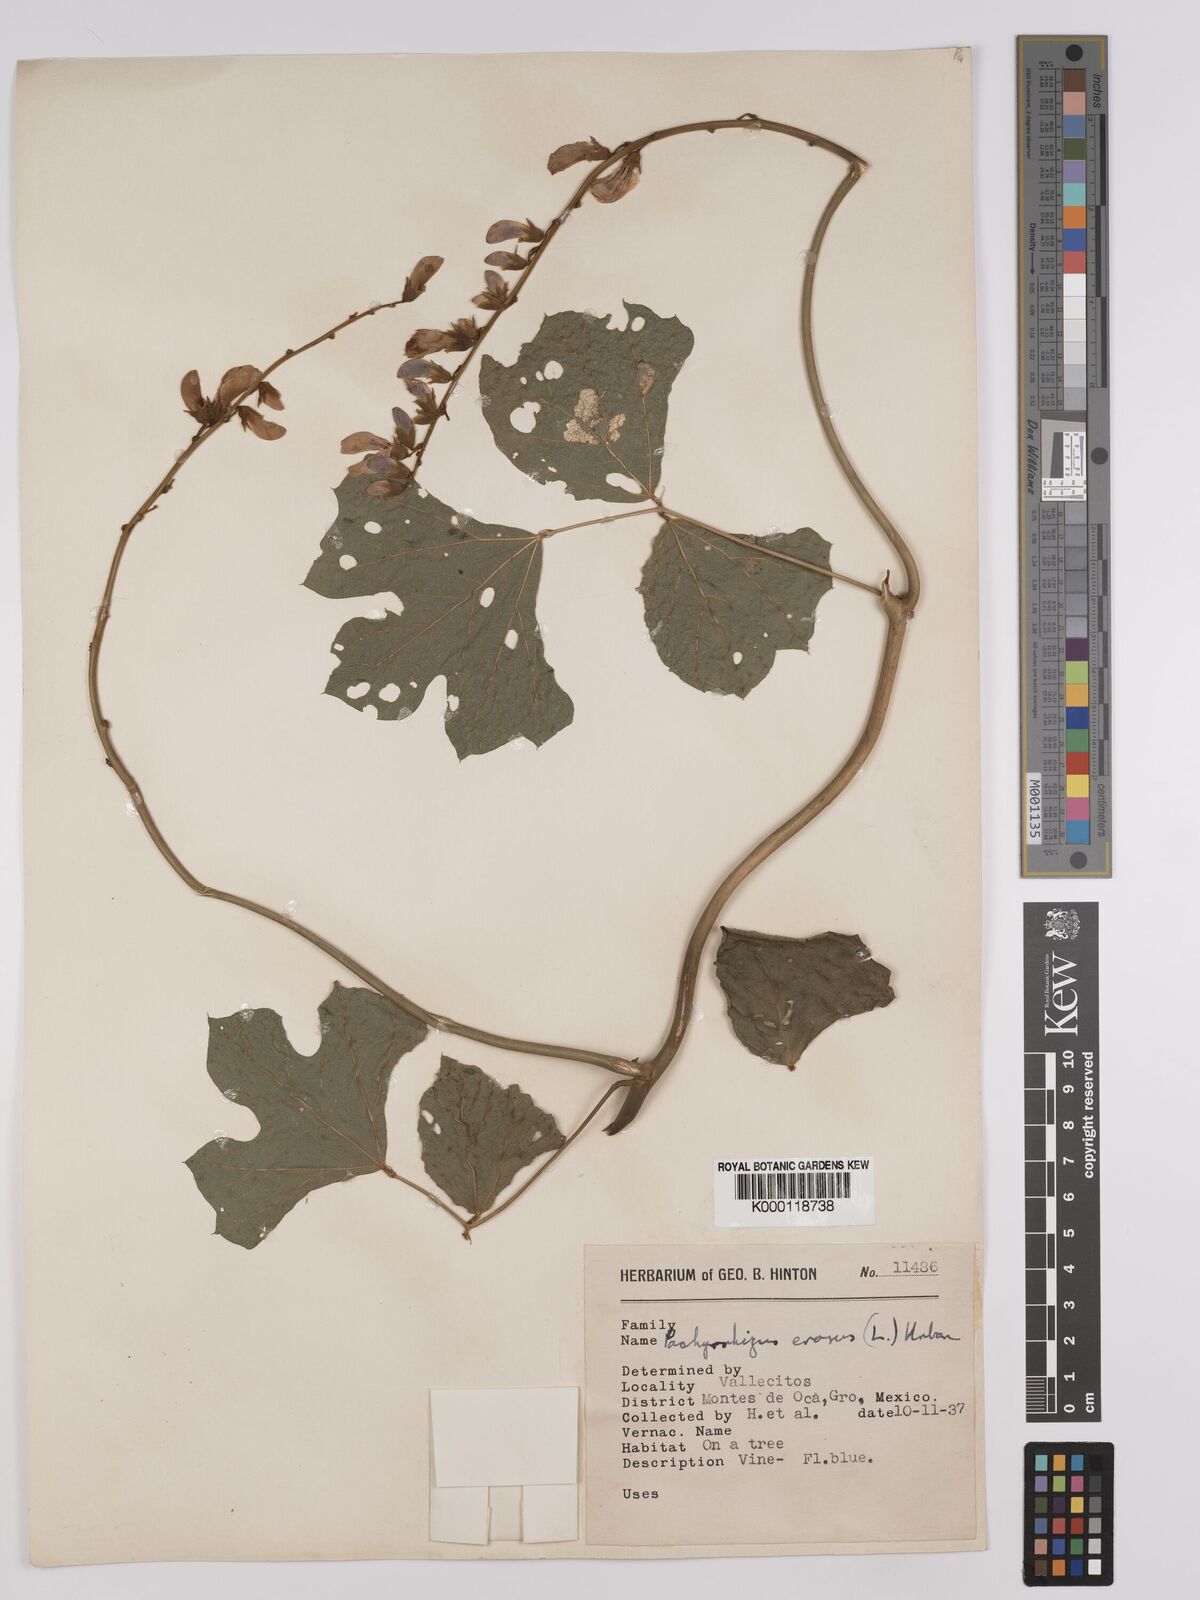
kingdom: Plantae
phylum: Tracheophyta
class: Magnoliopsida
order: Fabales
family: Fabaceae
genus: Pachyrhizus
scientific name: Pachyrhizus erosus
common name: Yam bean
